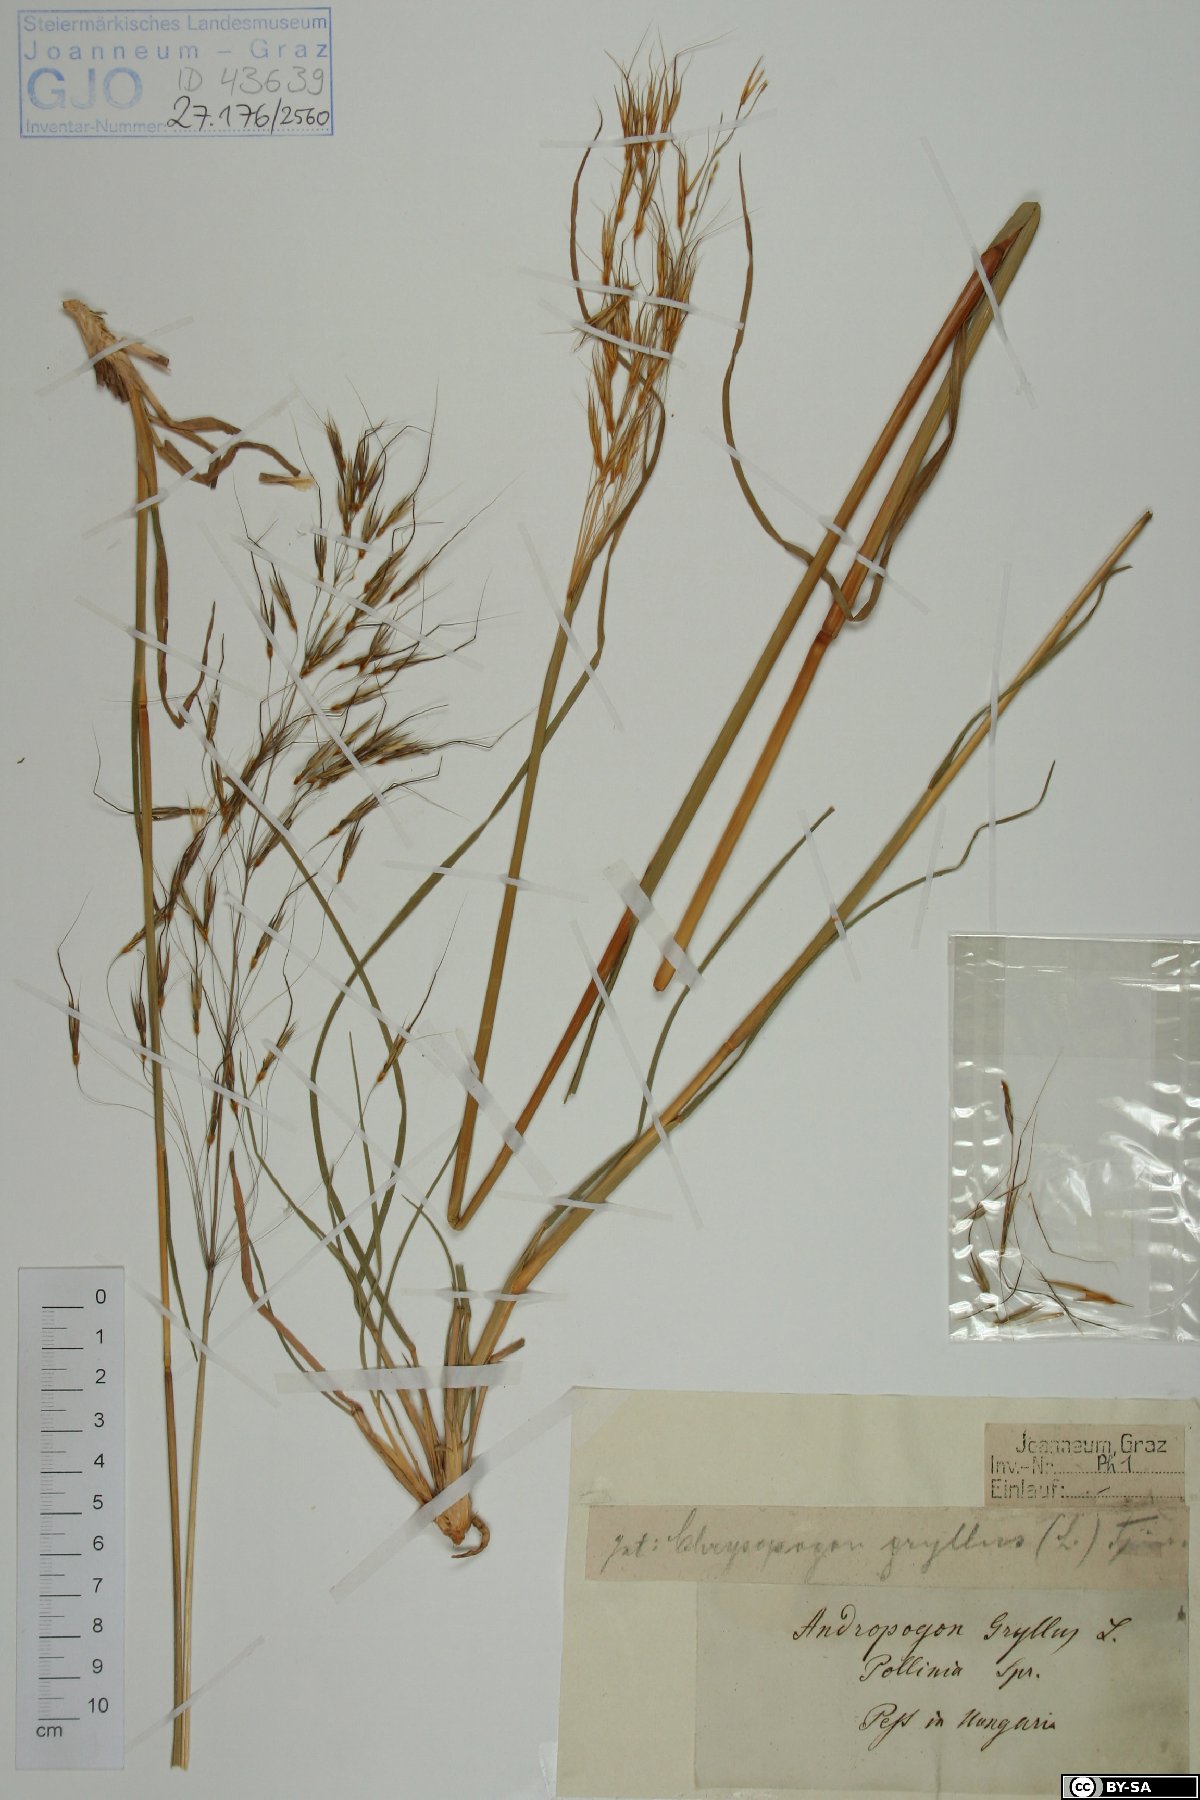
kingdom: Plantae
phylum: Tracheophyta
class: Liliopsida
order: Poales
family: Poaceae
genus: Chrysopogon
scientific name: Chrysopogon gryllus
